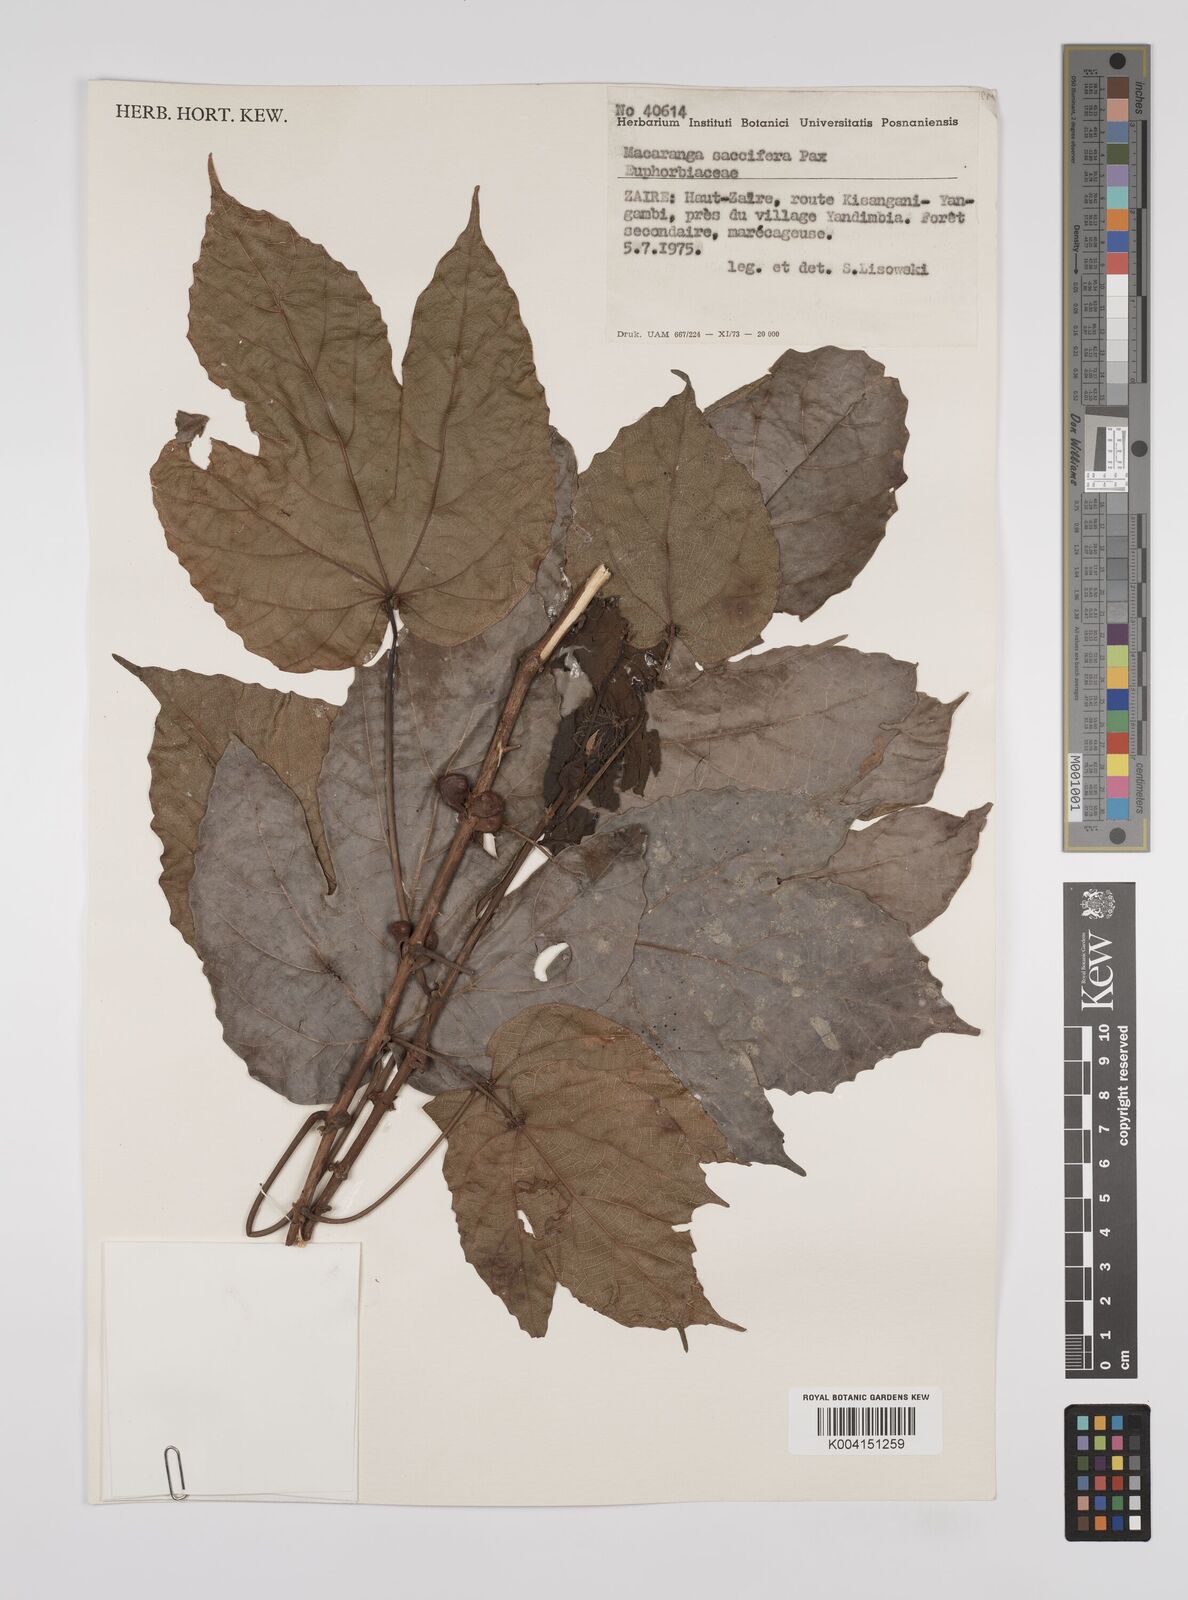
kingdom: Plantae
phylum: Tracheophyta
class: Magnoliopsida
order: Malpighiales
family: Euphorbiaceae
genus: Macaranga
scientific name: Macaranga saccifera
